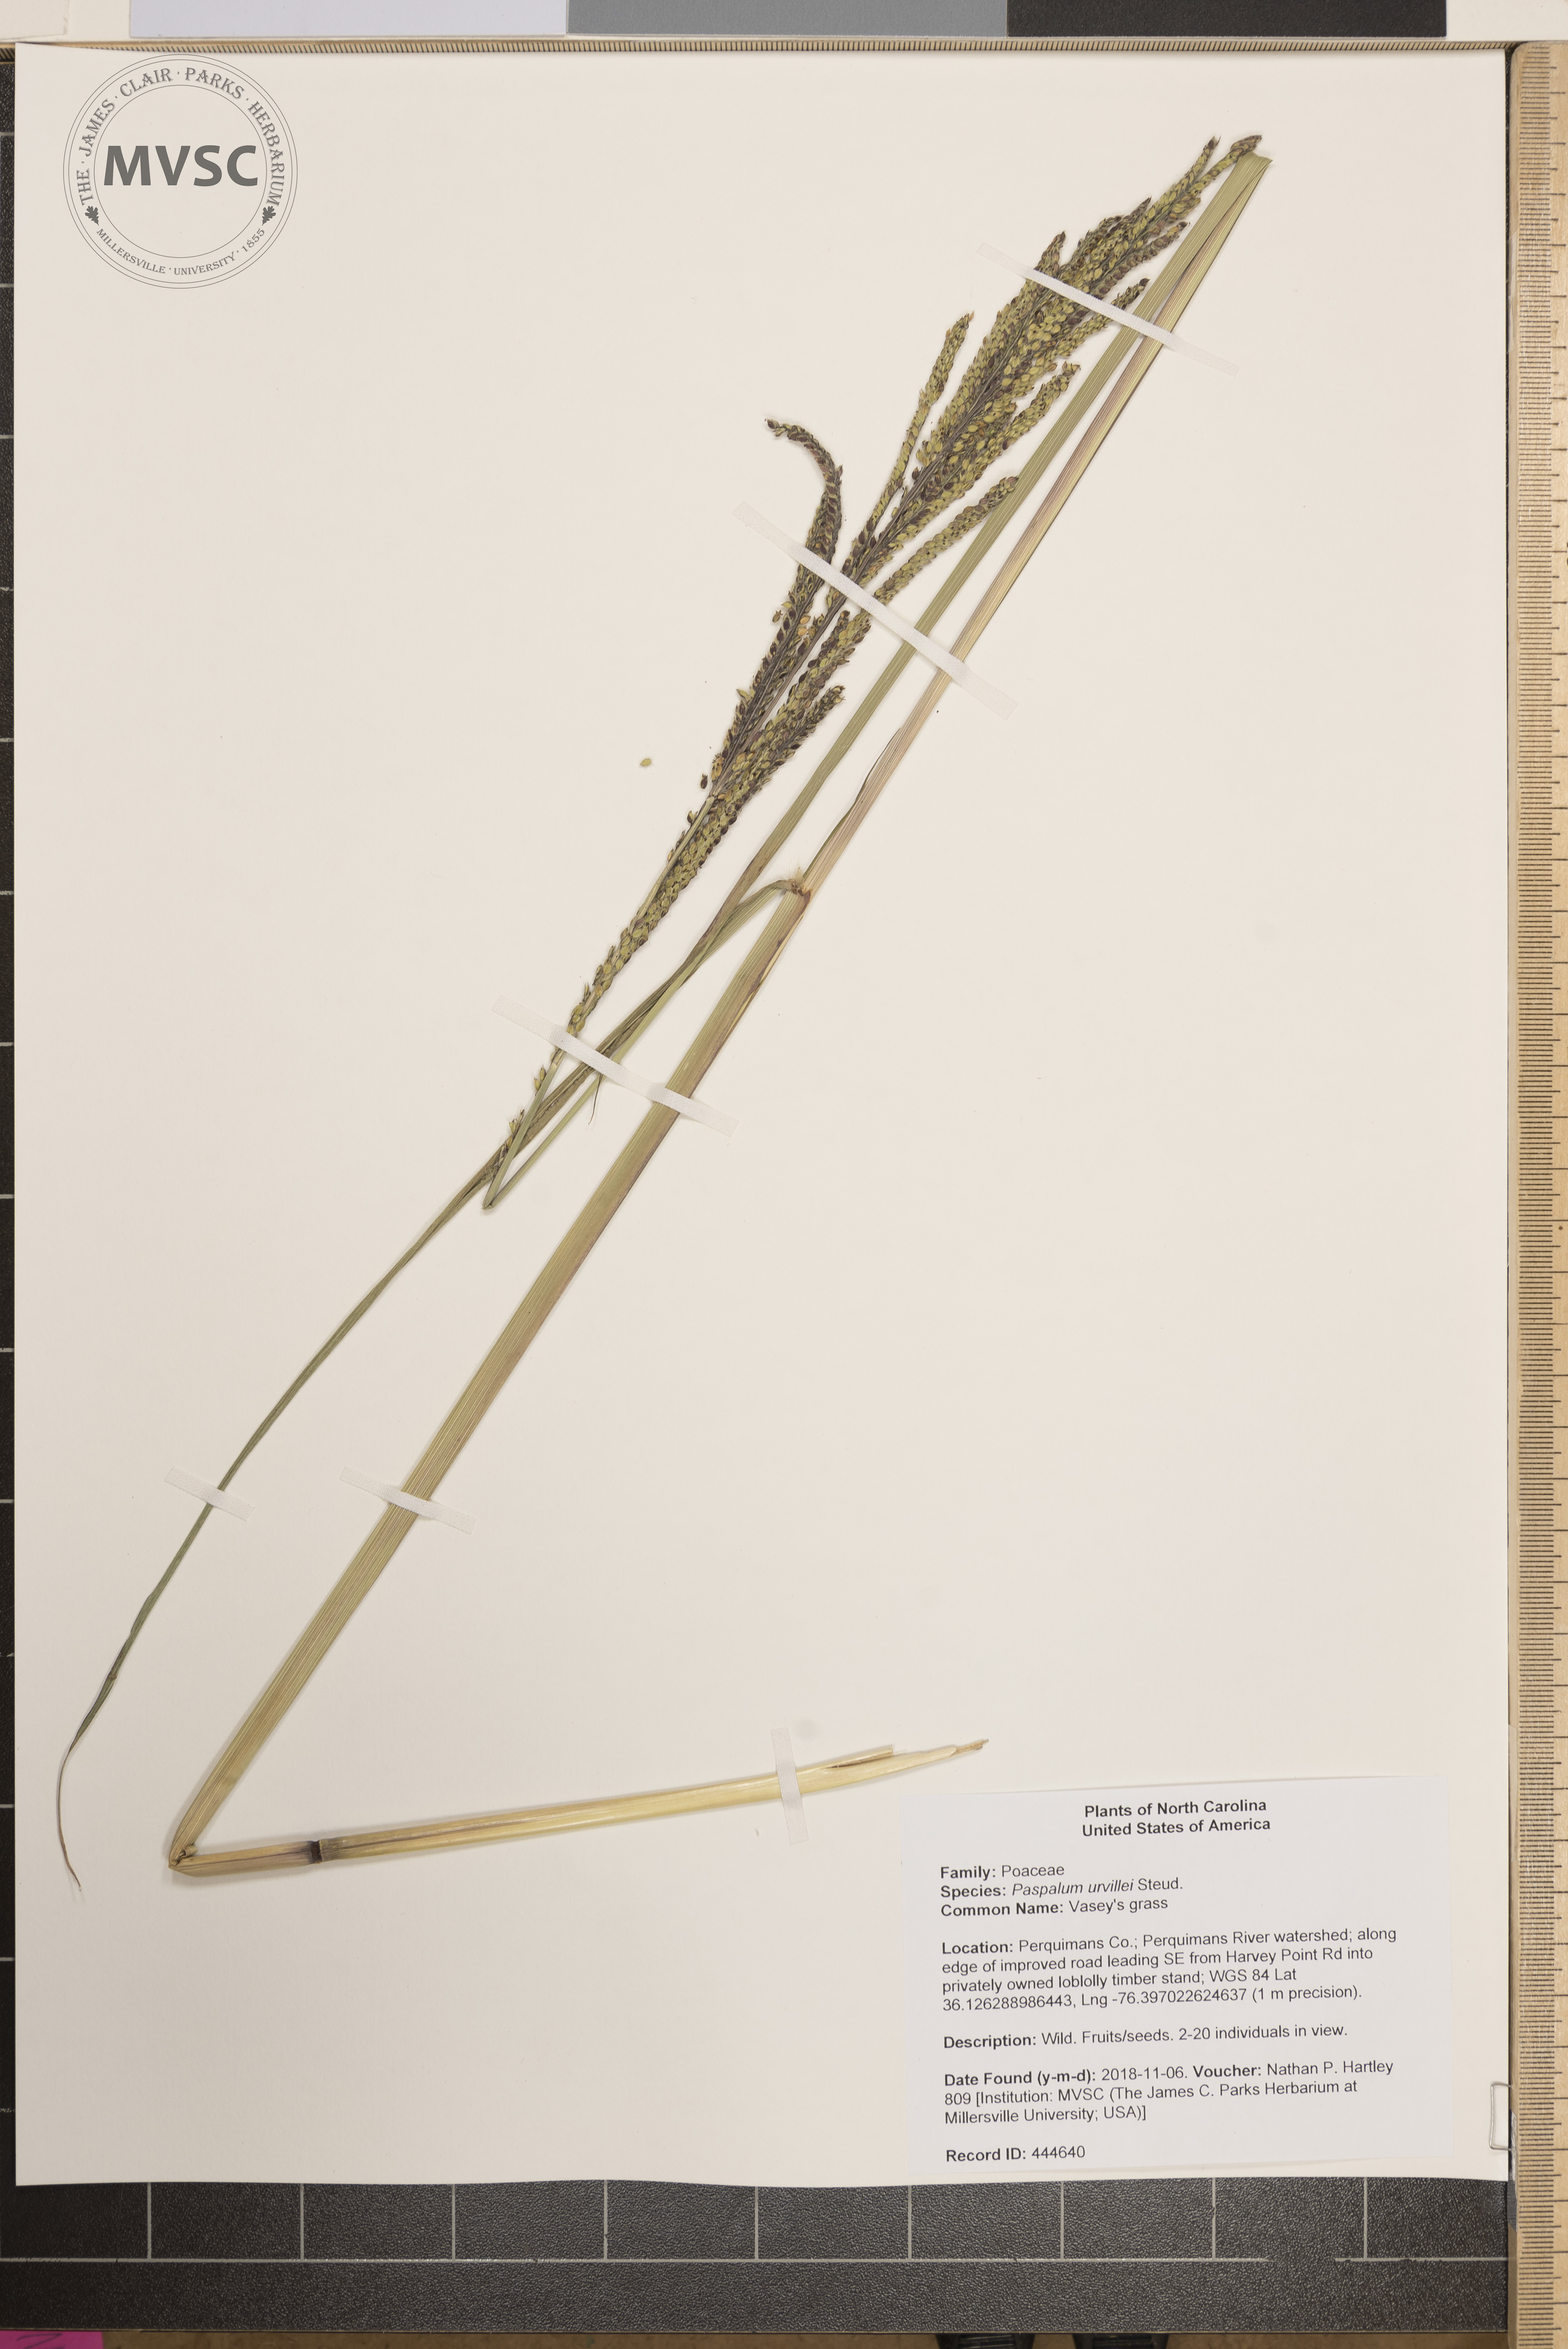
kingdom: Plantae
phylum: Tracheophyta
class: Liliopsida
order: Poales
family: Poaceae
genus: Paspalum
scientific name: Paspalum urvillei
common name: Vasey's grass
